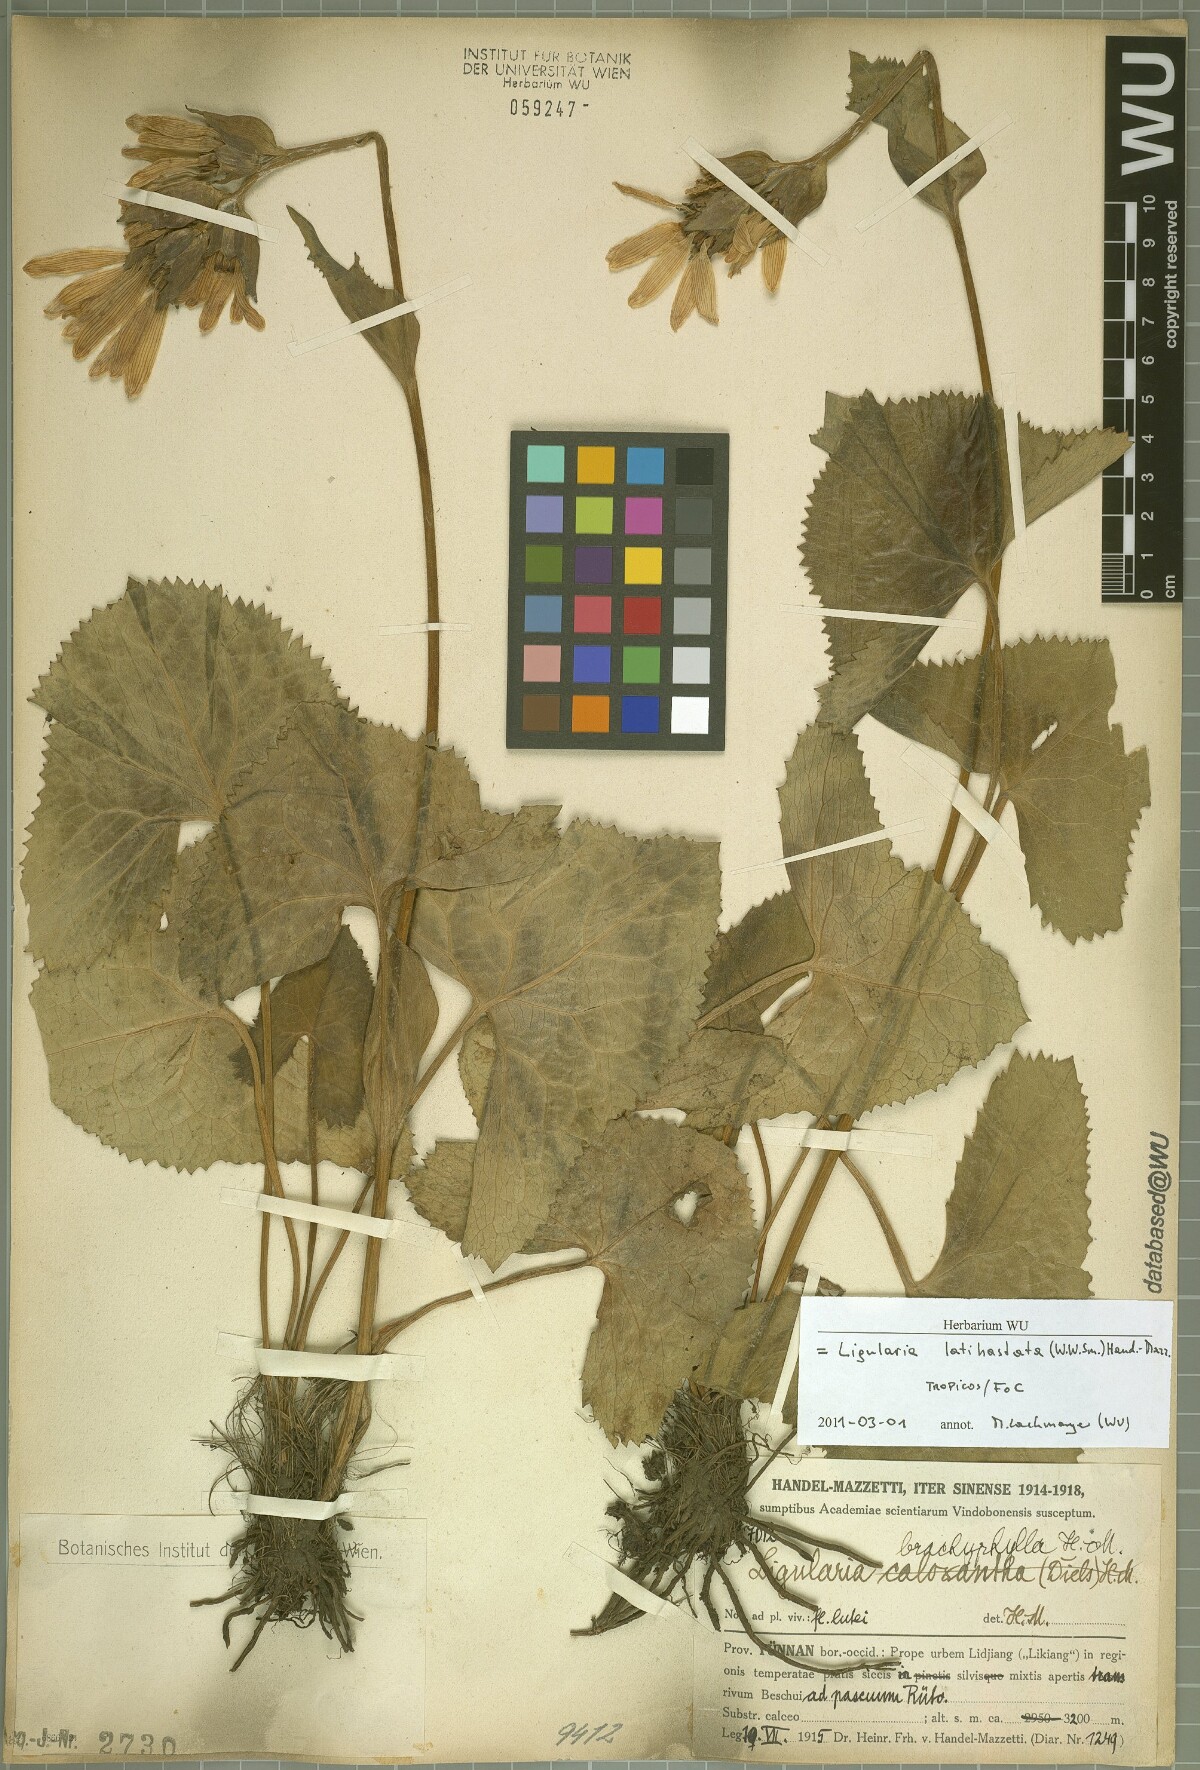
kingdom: Plantae
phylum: Tracheophyta
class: Magnoliopsida
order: Asterales
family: Asteraceae
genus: Ligularia
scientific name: Ligularia latihastata
